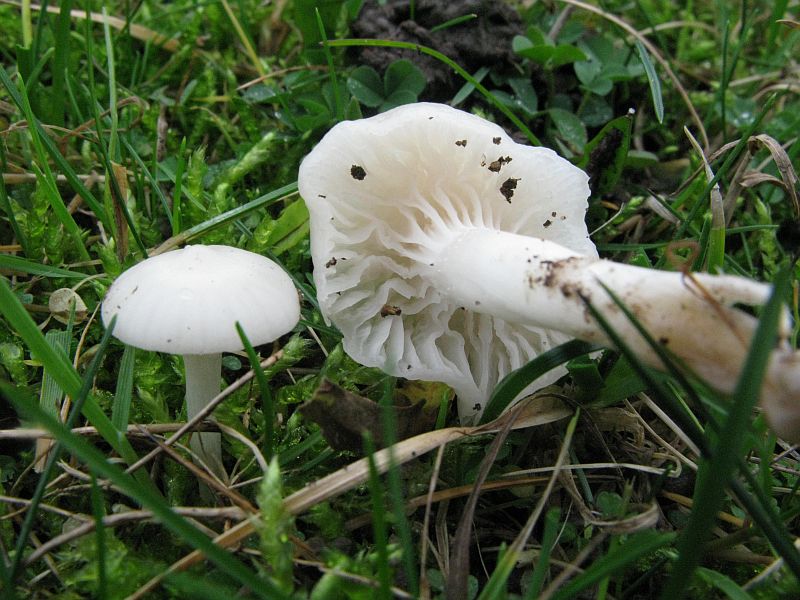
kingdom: Fungi
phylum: Basidiomycota
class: Agaricomycetes
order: Agaricales
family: Hygrophoraceae
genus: Cuphophyllus
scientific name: Cuphophyllus virgineus
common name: snehvid vokshat
